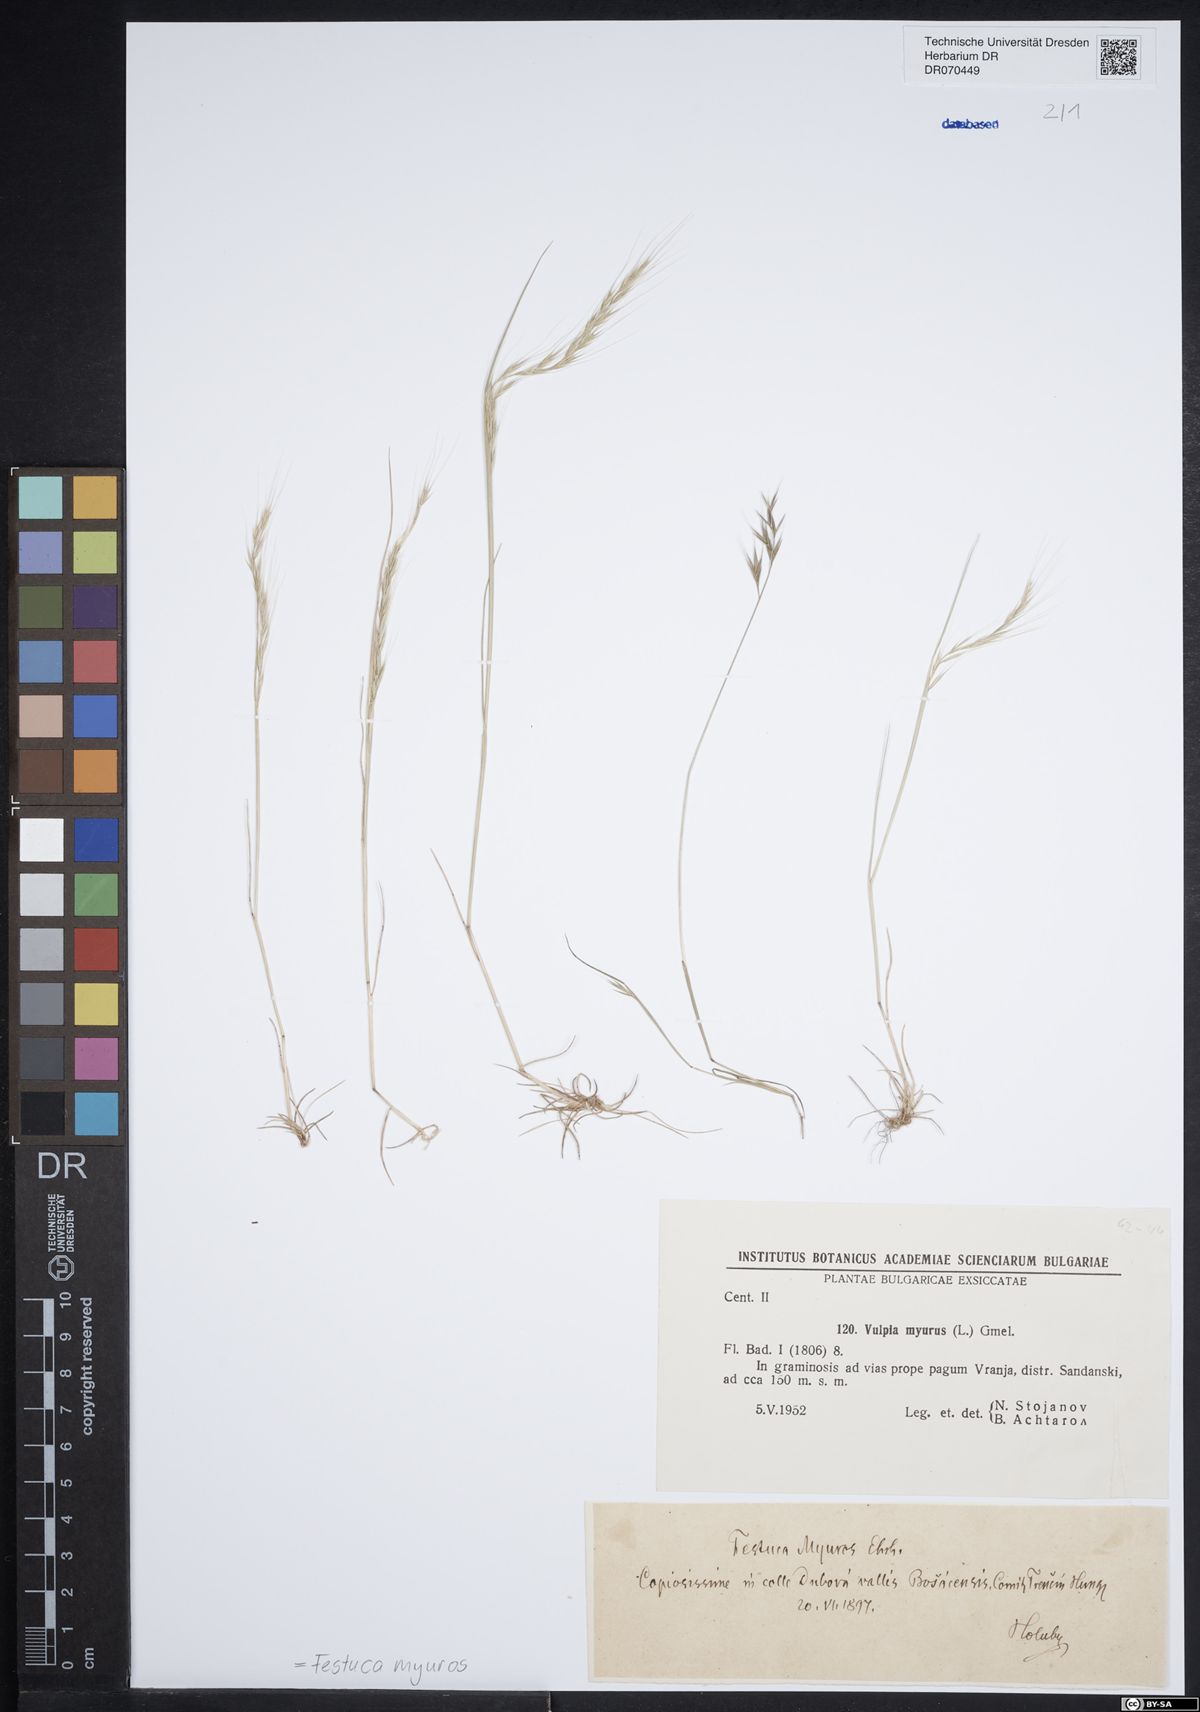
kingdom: Plantae
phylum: Tracheophyta
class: Liliopsida
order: Poales
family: Poaceae
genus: Festuca
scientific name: Festuca myuros
